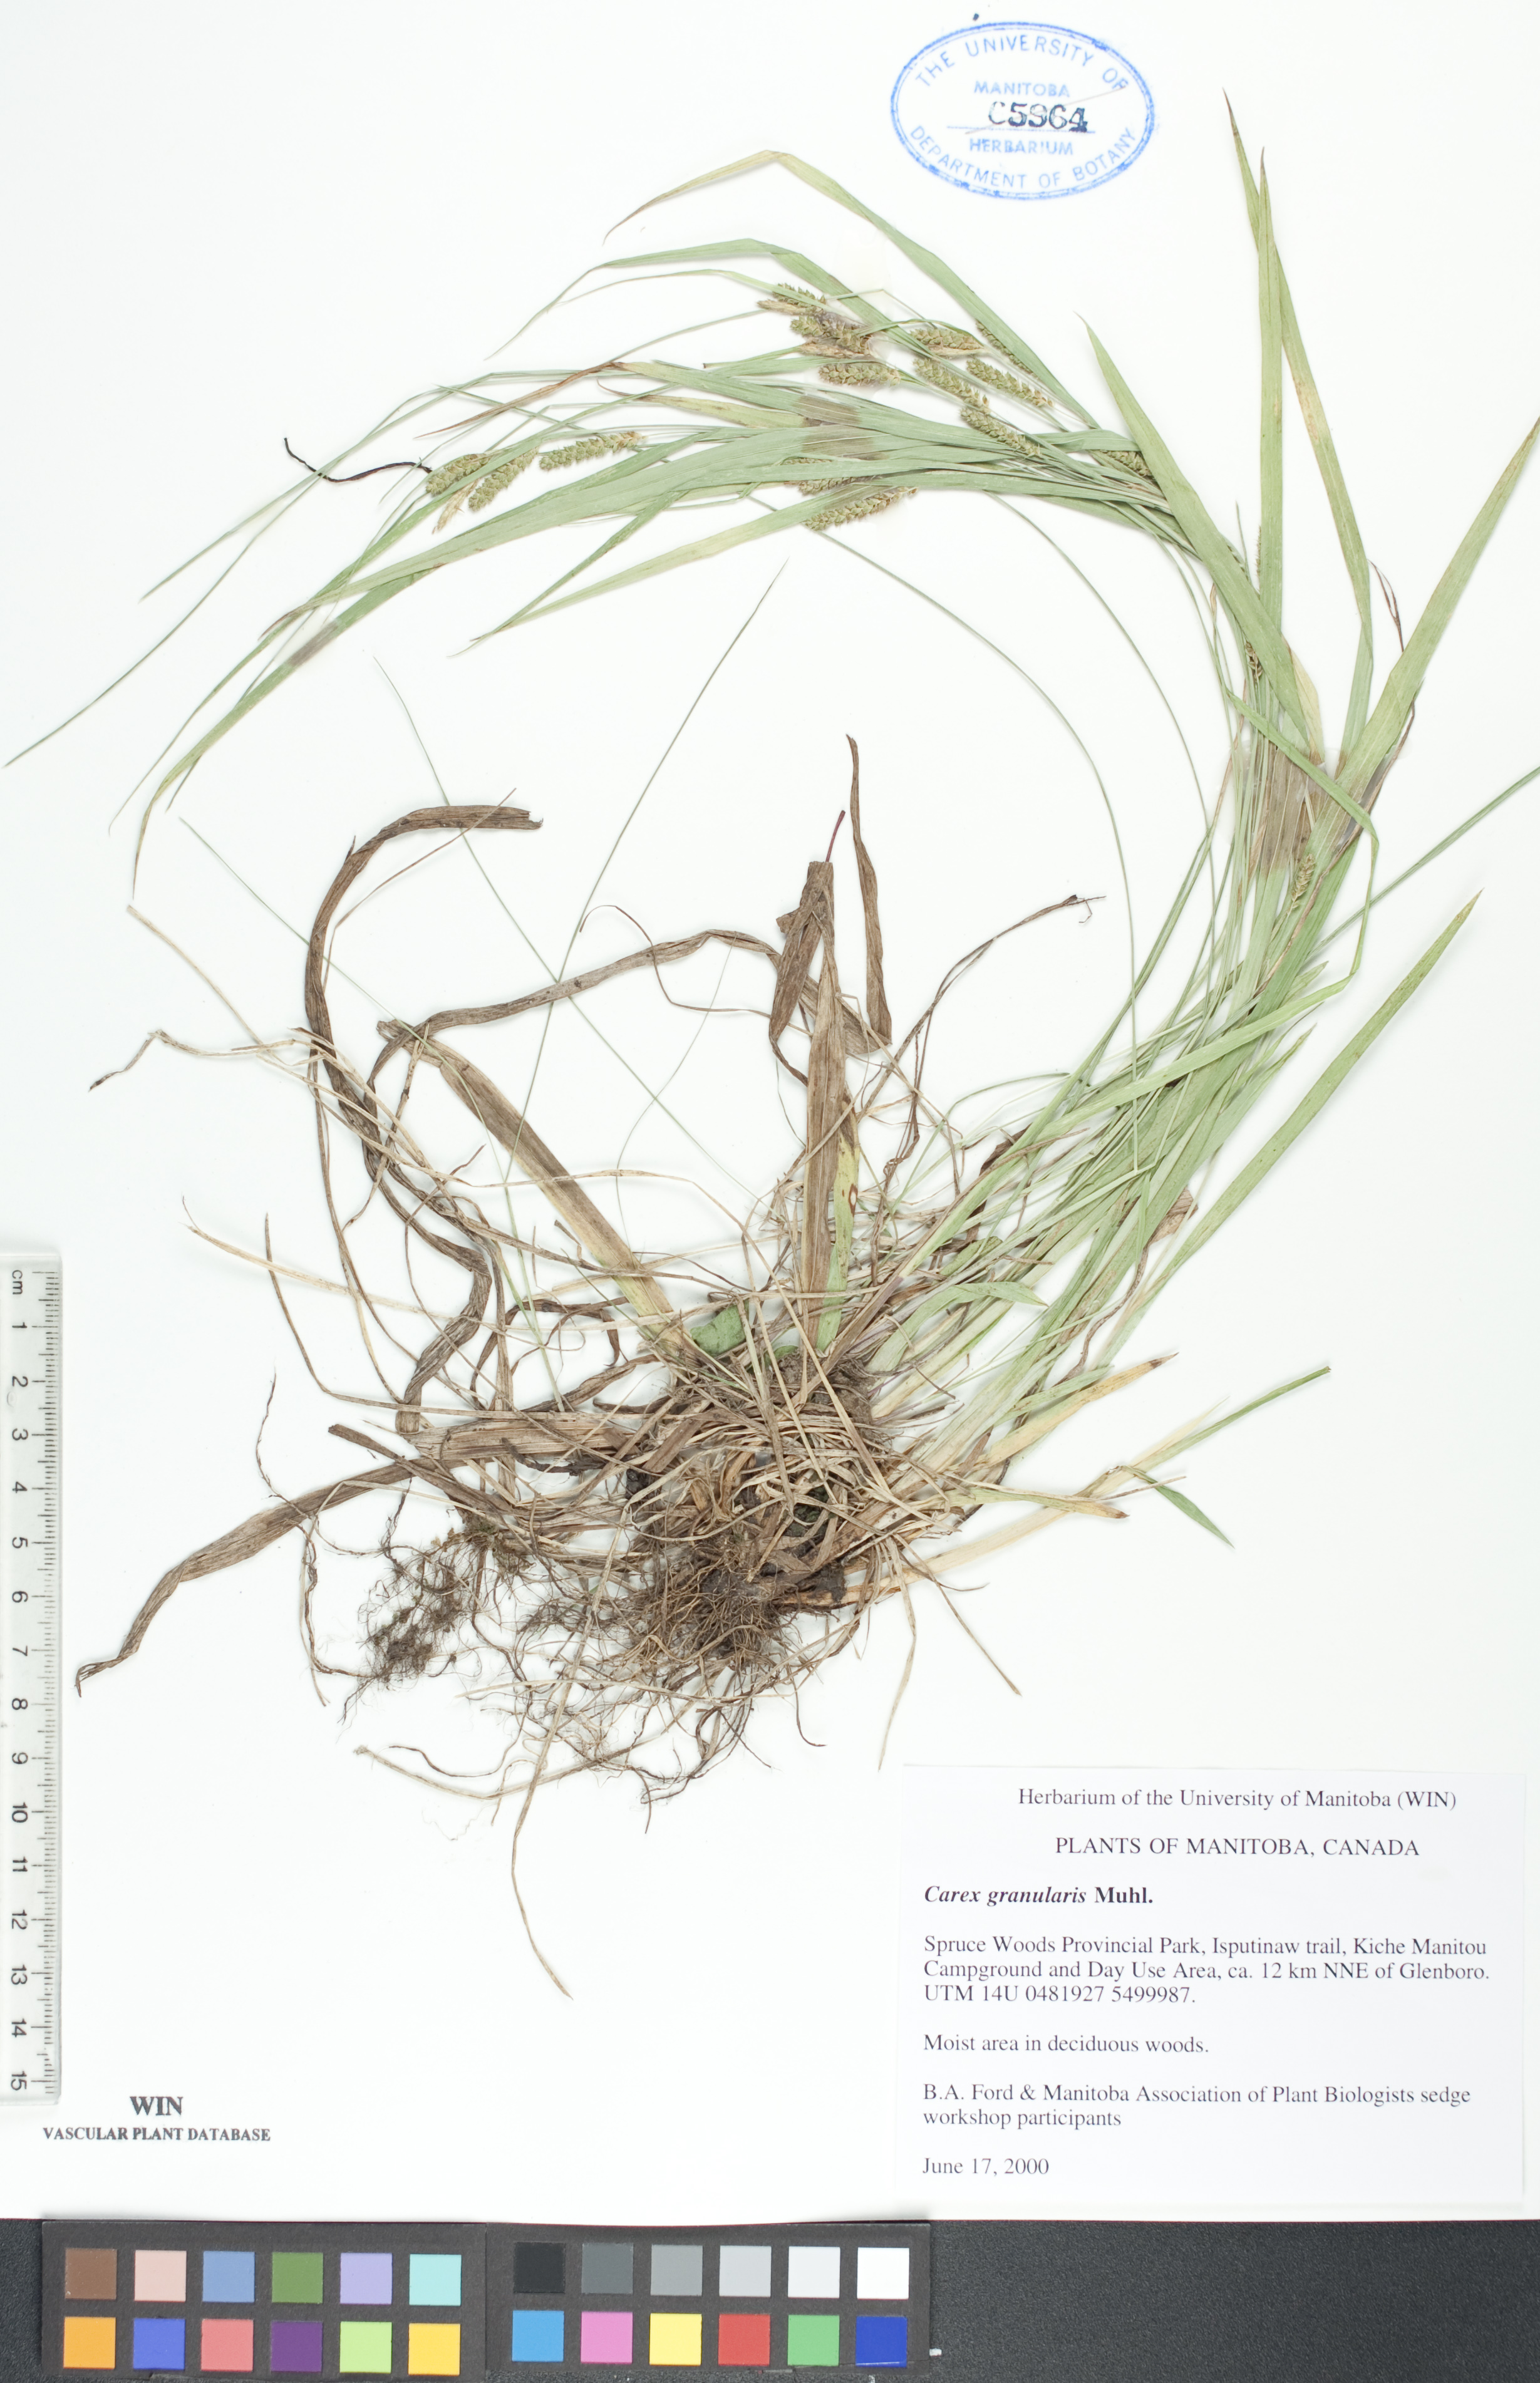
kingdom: Plantae
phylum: Tracheophyta
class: Liliopsida
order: Poales
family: Cyperaceae
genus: Carex
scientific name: Carex granularis
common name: Granular sedge
